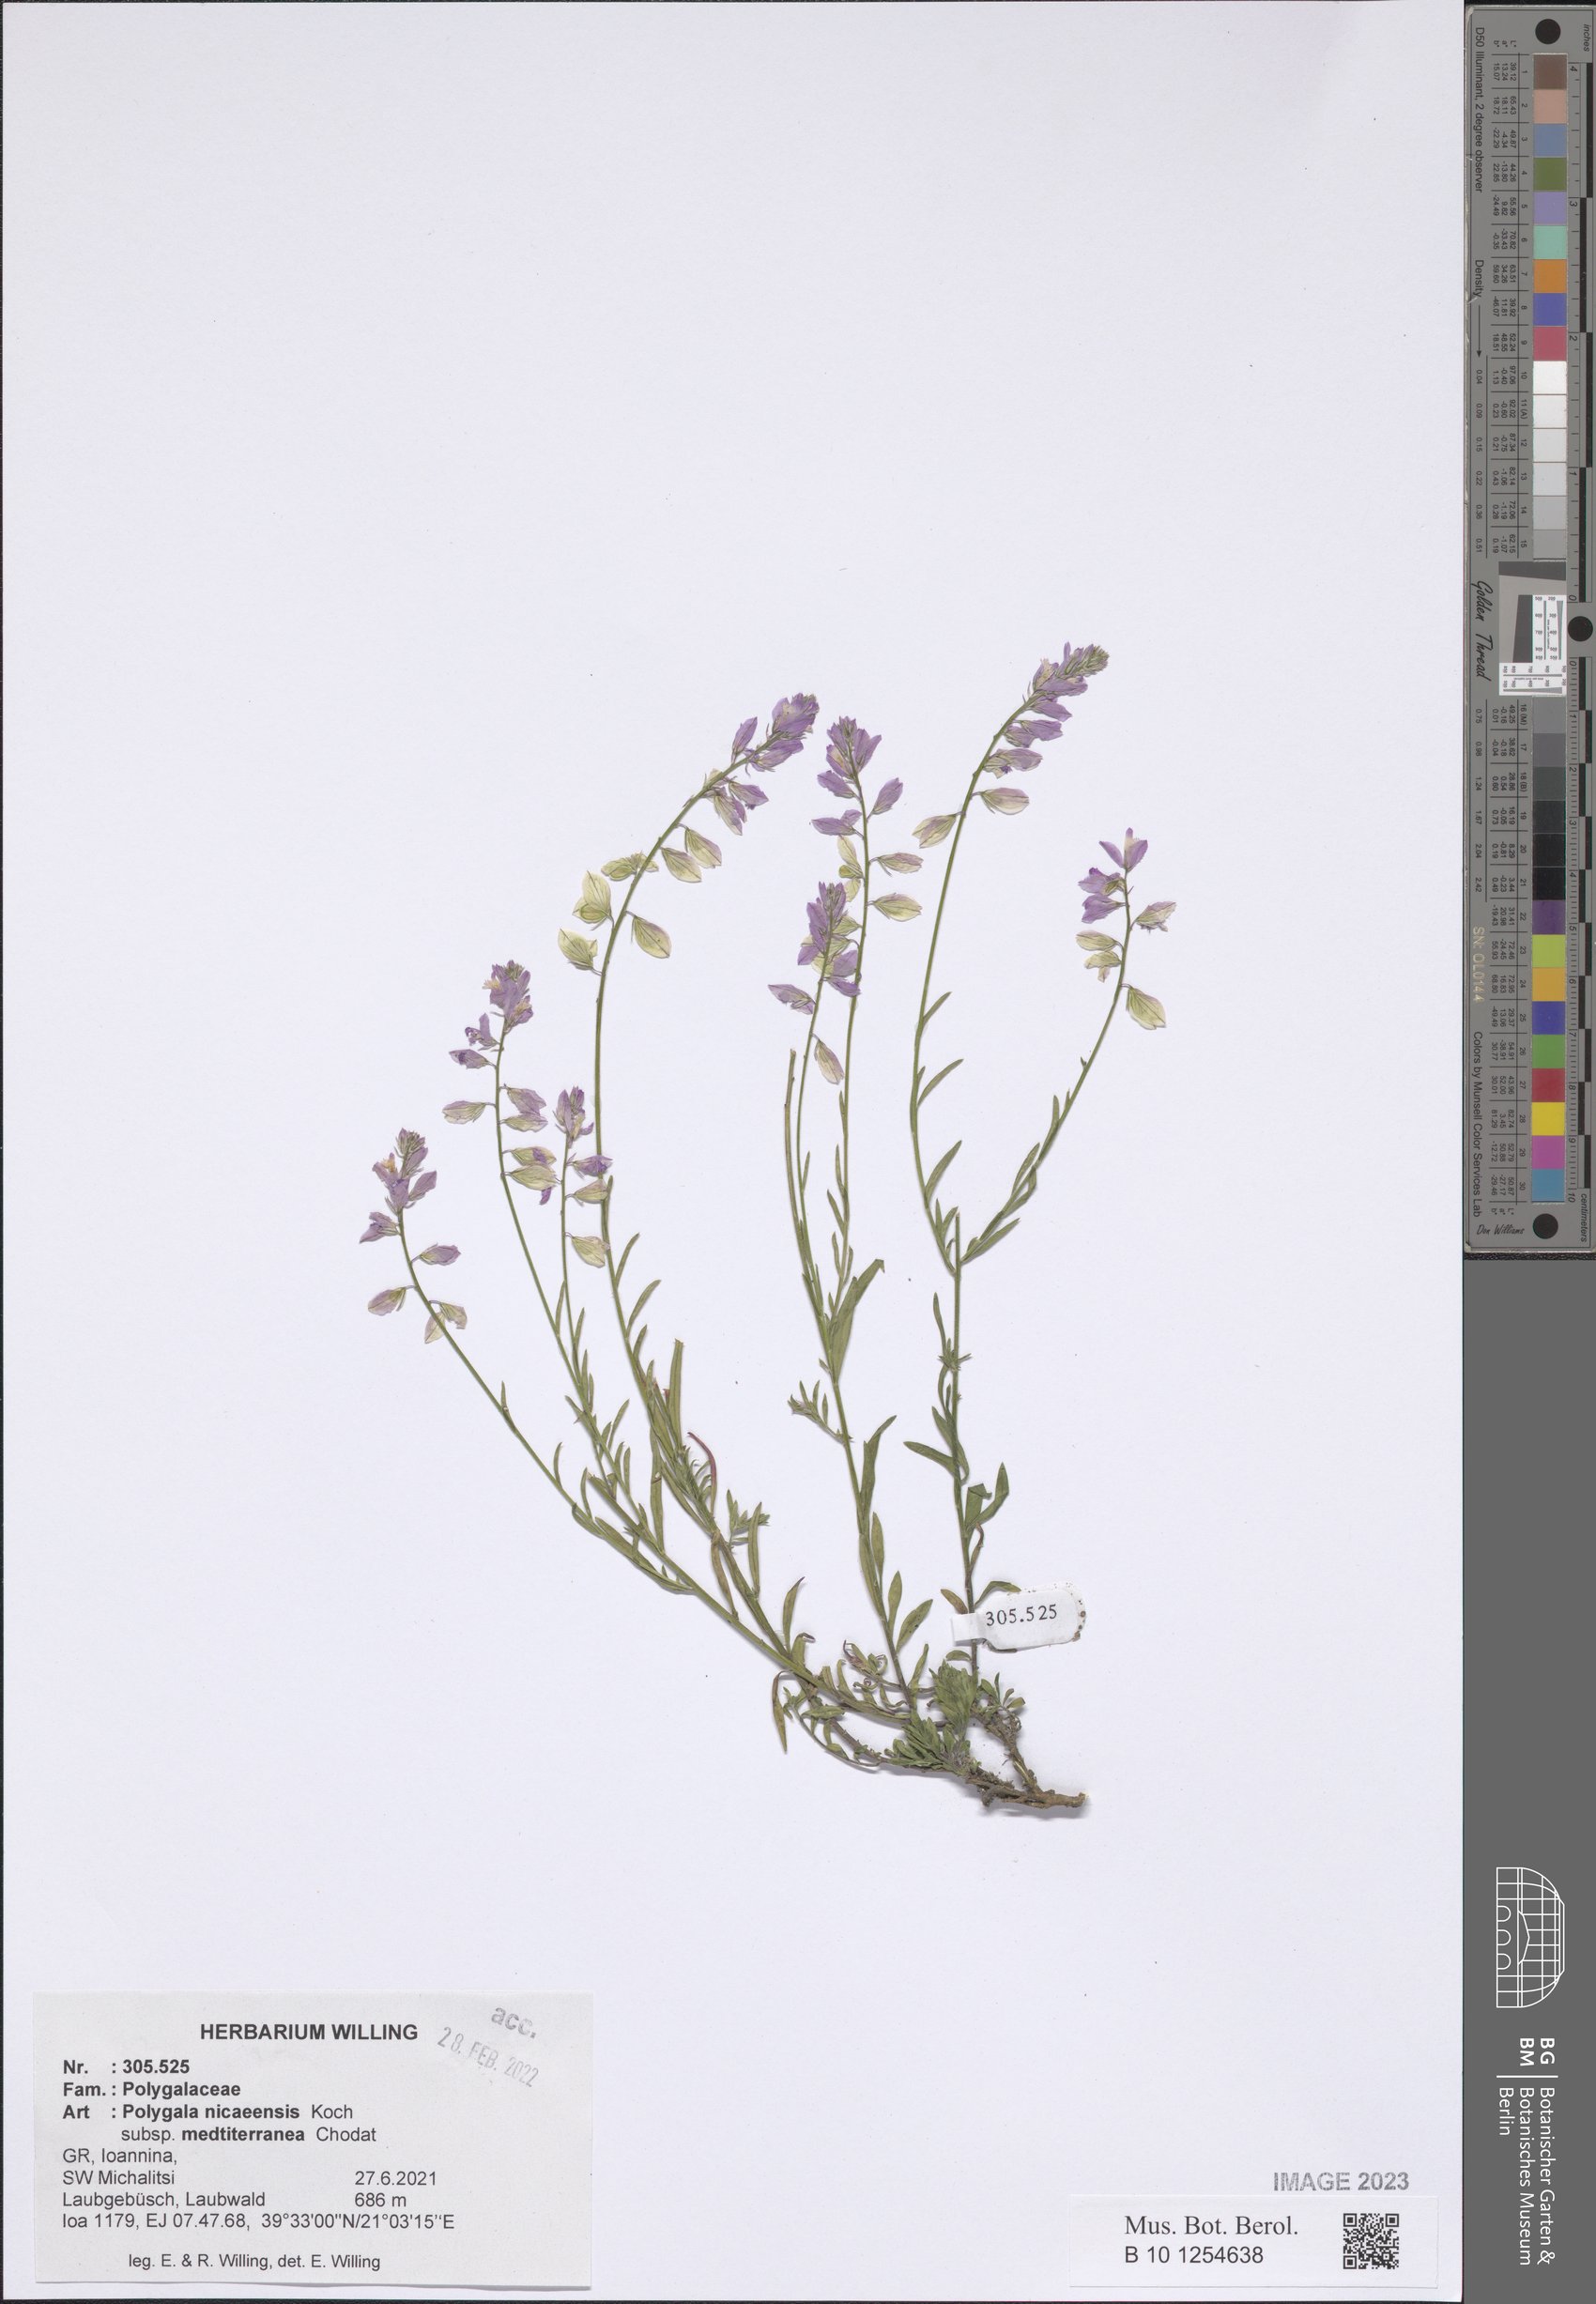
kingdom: Plantae
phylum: Tracheophyta
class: Magnoliopsida
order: Fabales
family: Polygalaceae
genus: Polygala
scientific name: Polygala nicaeensis
